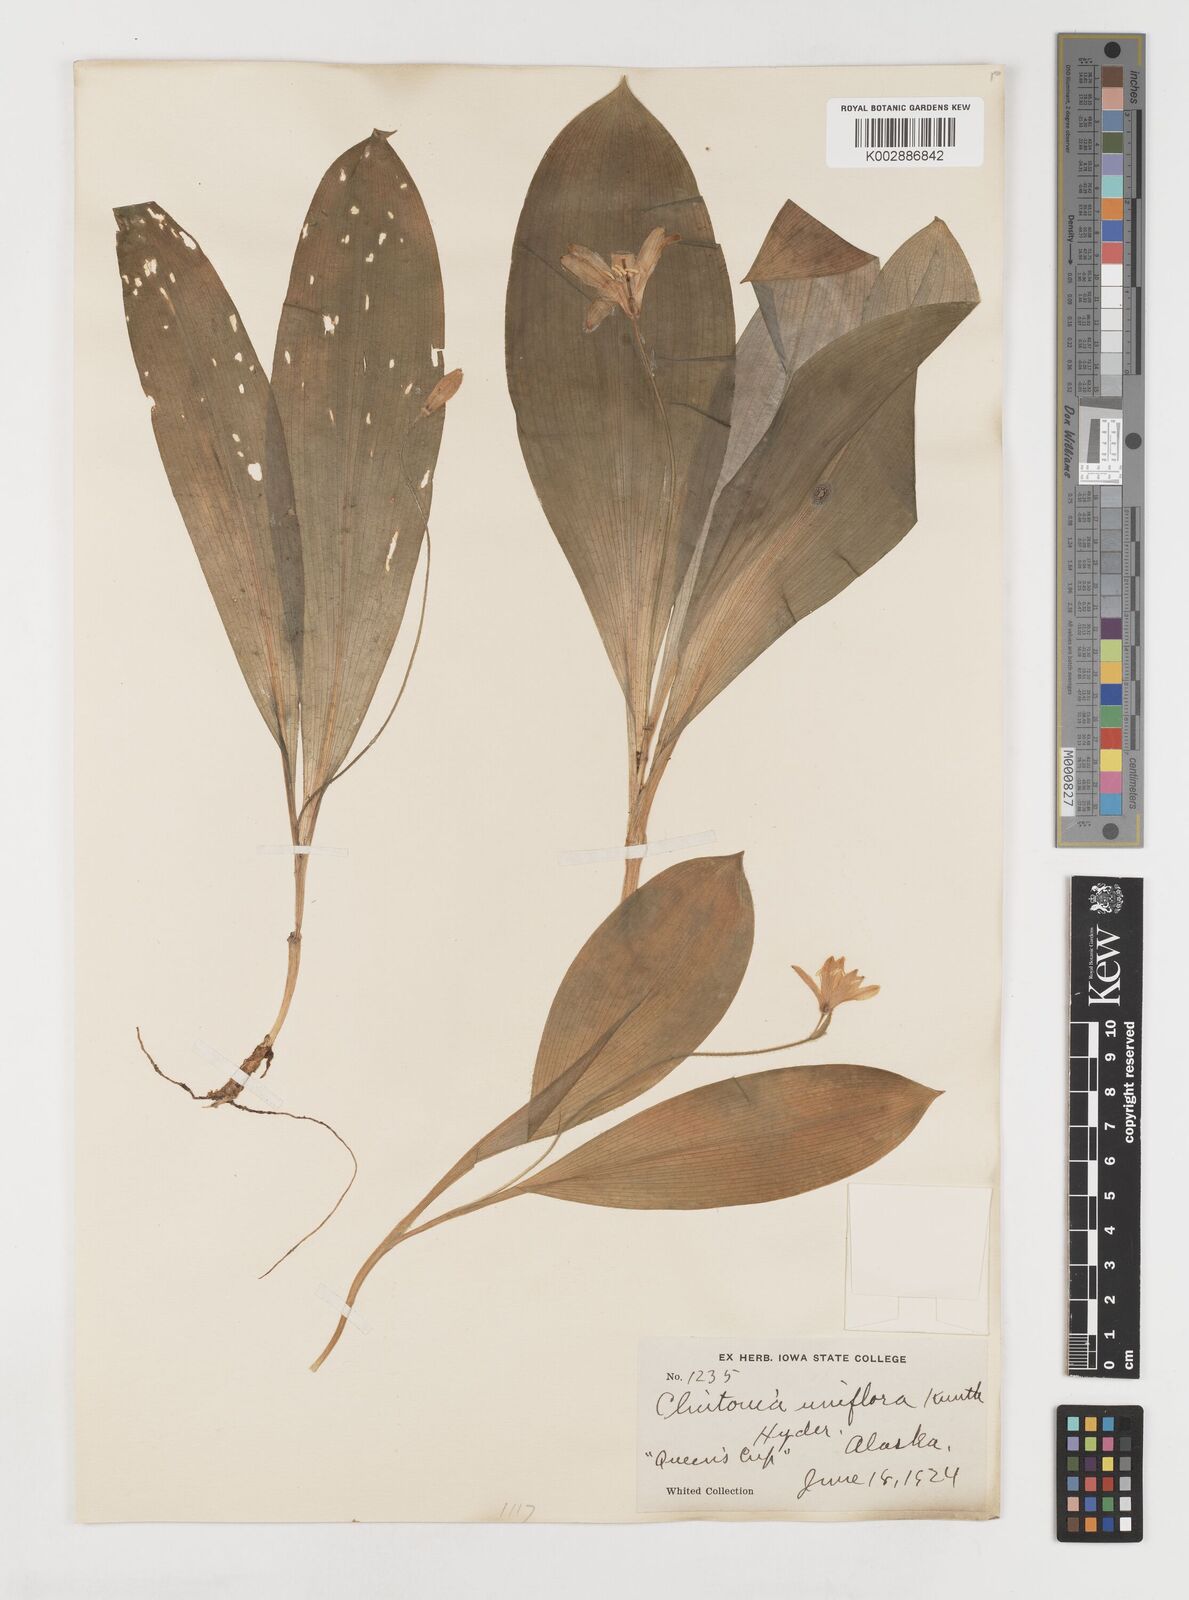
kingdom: Plantae
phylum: Tracheophyta
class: Liliopsida
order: Liliales
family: Liliaceae
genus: Clintonia
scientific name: Clintonia uniflora
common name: Queen's cup
